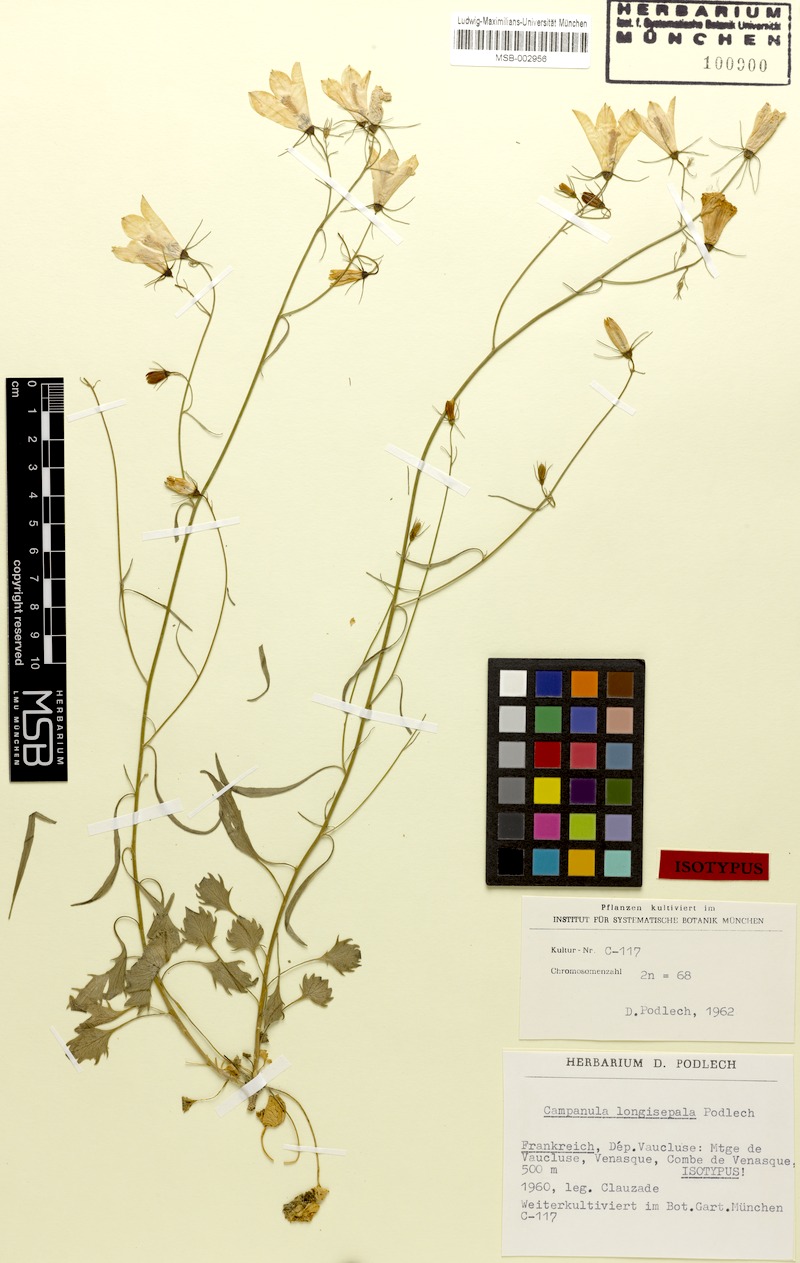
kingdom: Plantae
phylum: Tracheophyta
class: Magnoliopsida
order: Asterales
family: Campanulaceae
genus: Campanula
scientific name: Campanula longisepala
